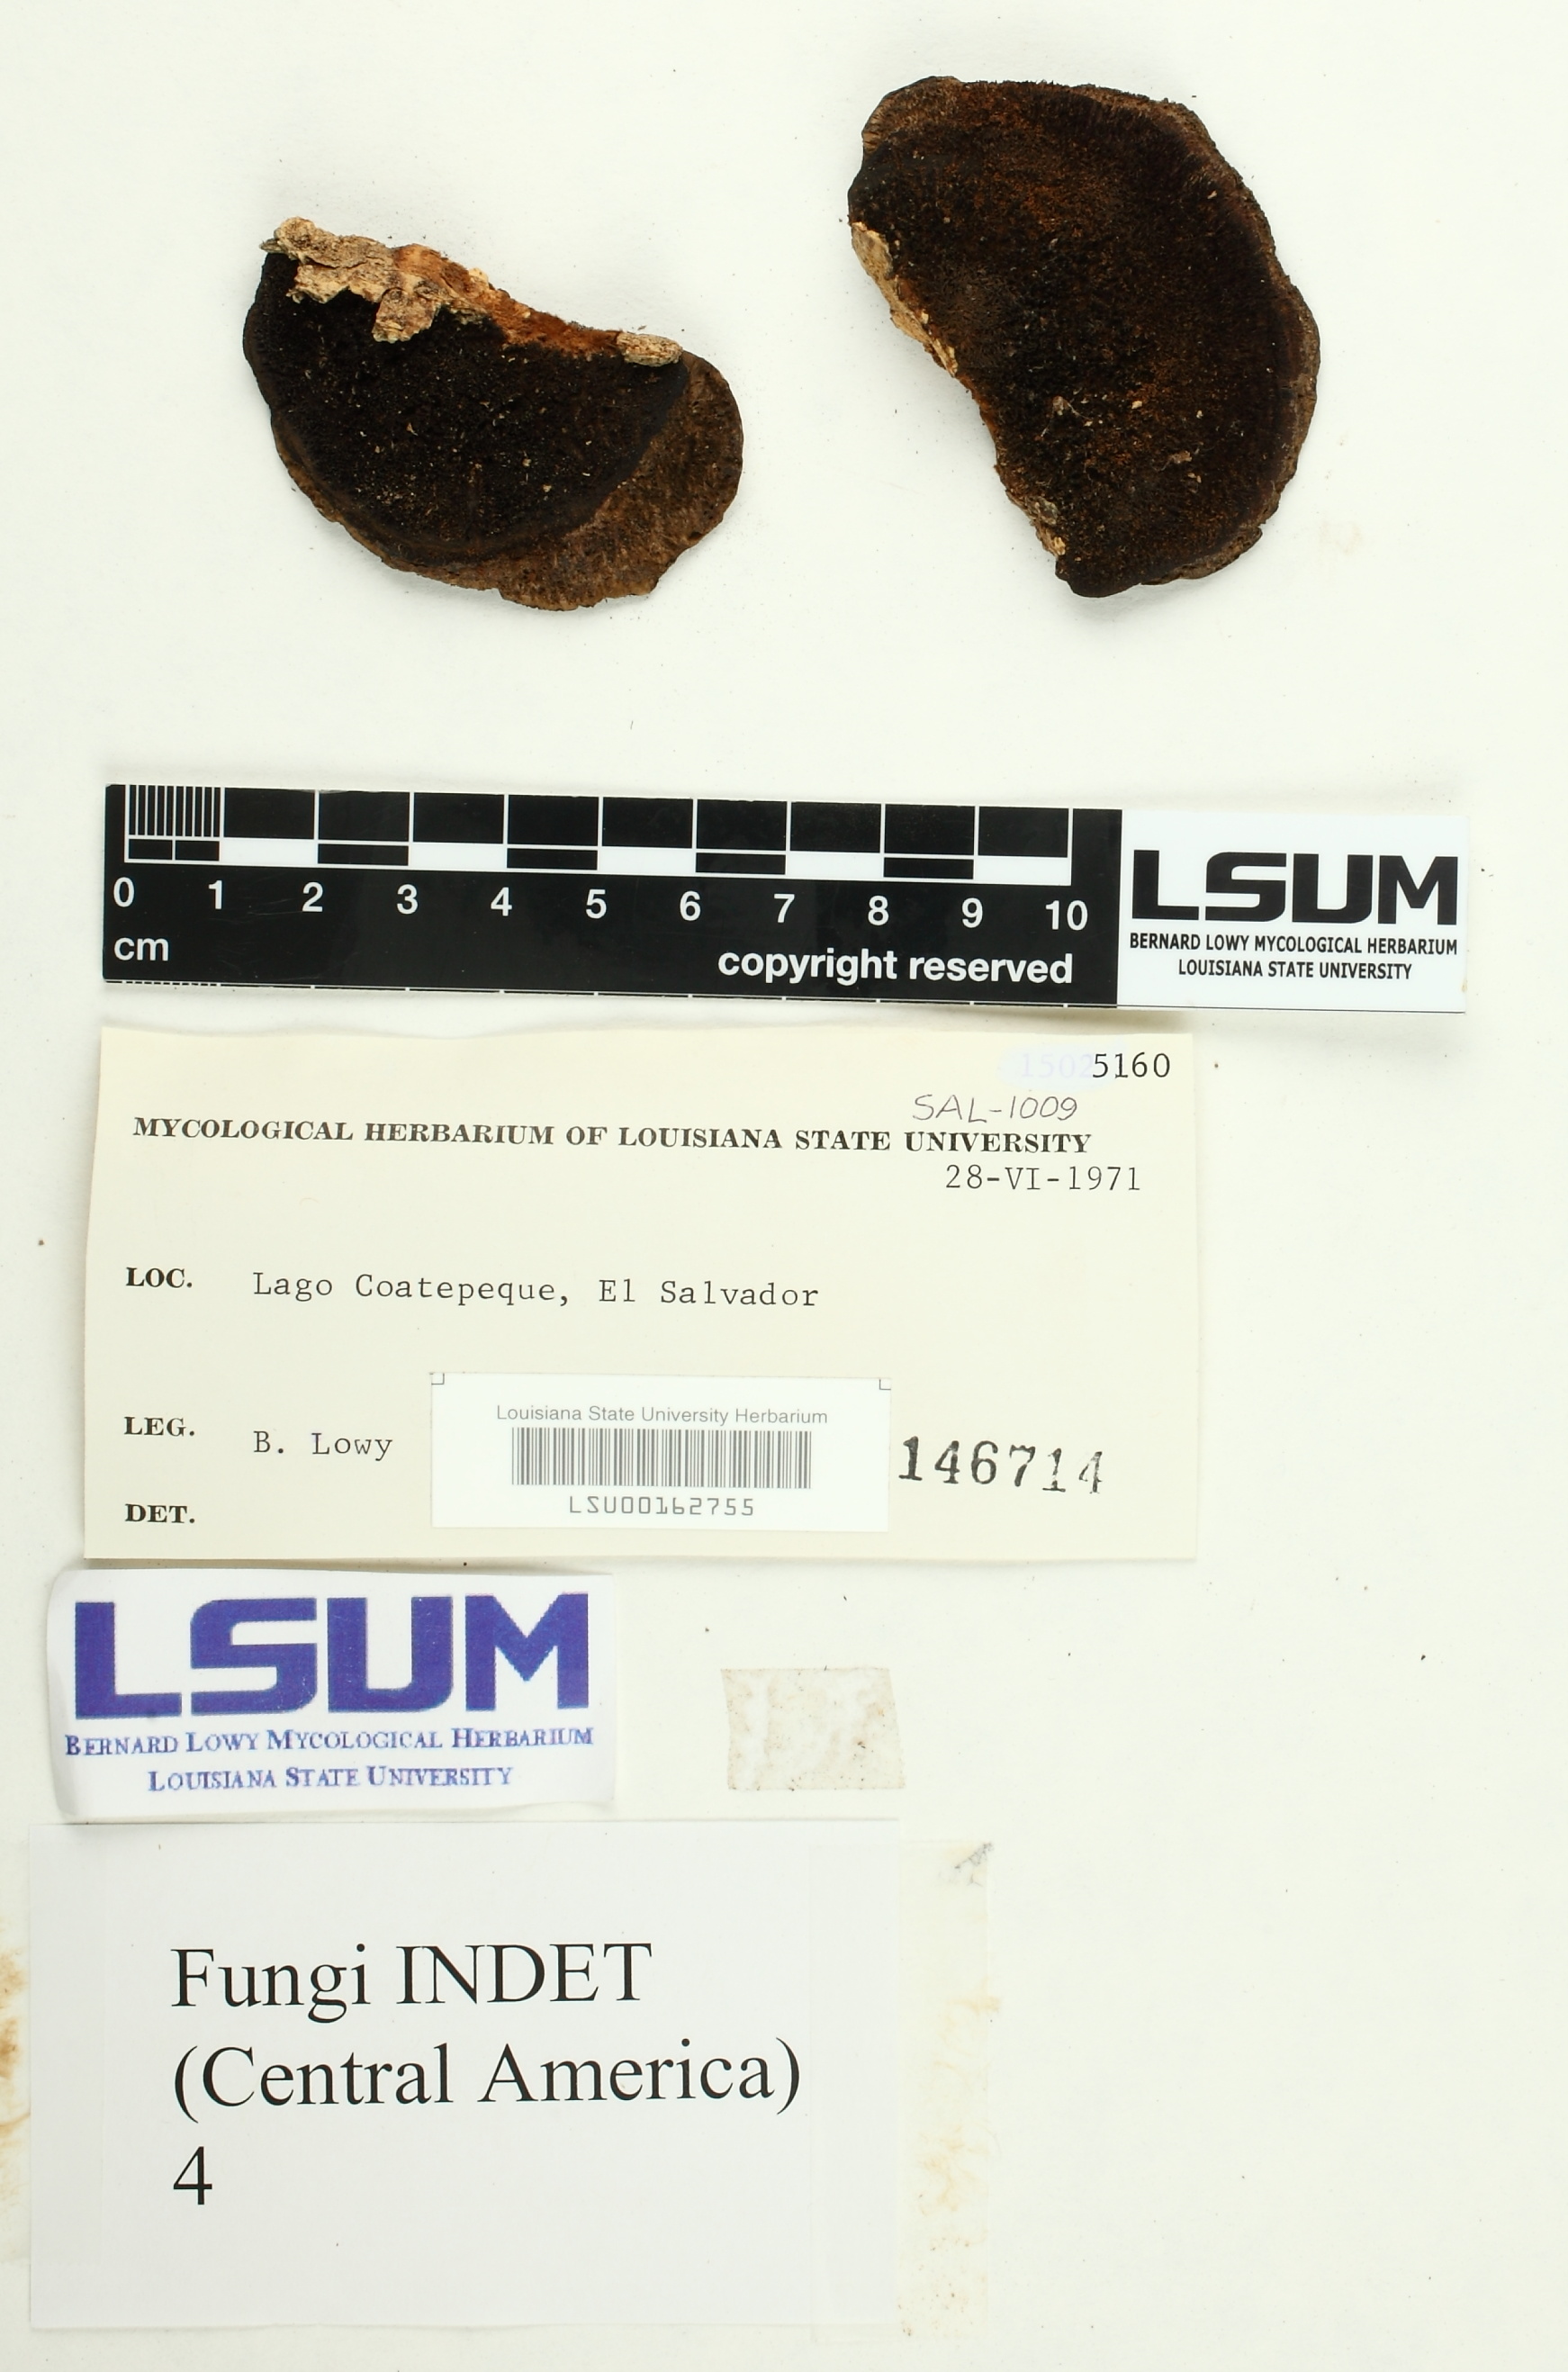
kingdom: Fungi
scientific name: Fungi
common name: Fungi
